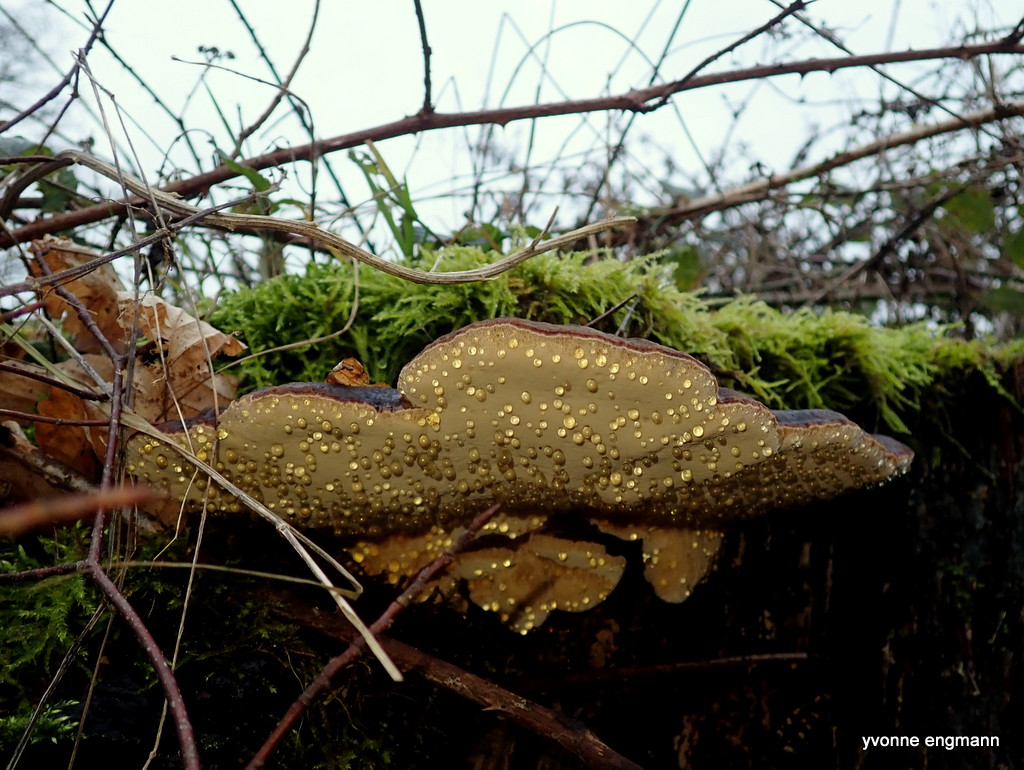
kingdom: Fungi
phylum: Basidiomycota
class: Agaricomycetes
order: Polyporales
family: Ischnodermataceae
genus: Ischnoderma
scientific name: Ischnoderma resinosum
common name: løv-tjæreporesvamp
